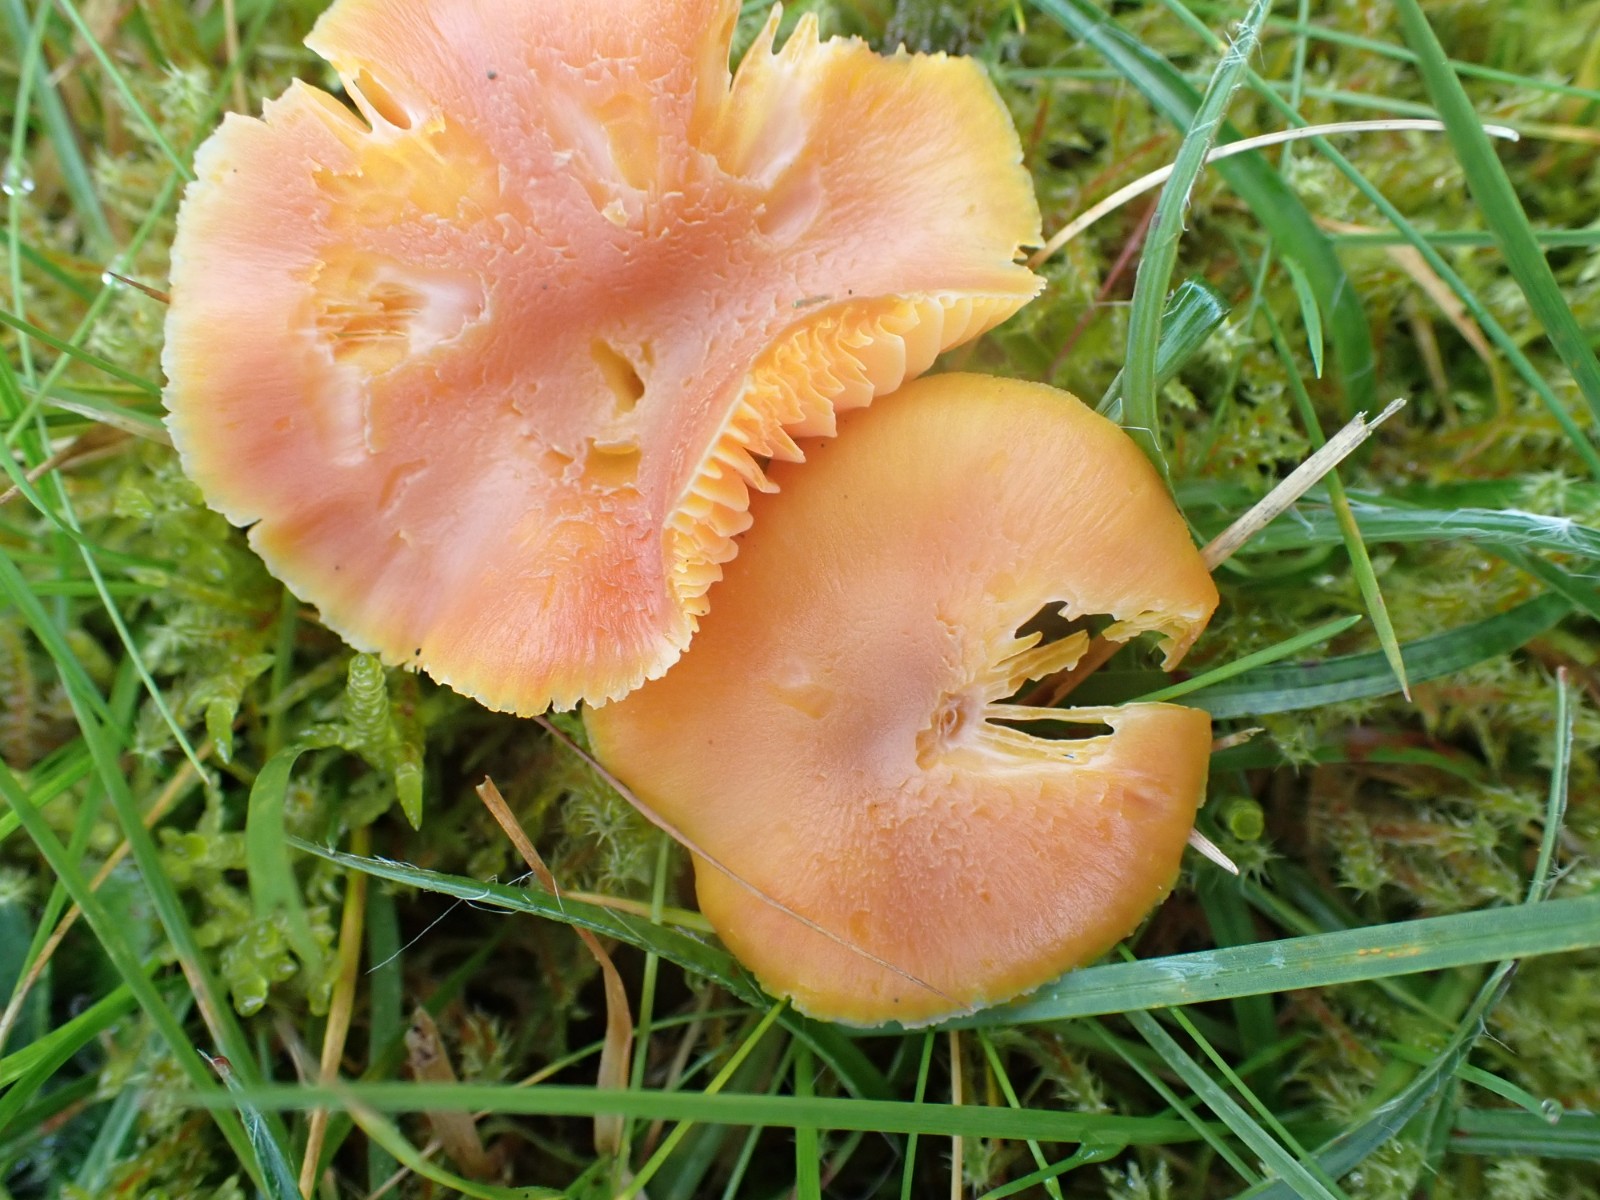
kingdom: Fungi
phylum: Basidiomycota
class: Agaricomycetes
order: Agaricales
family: Hygrophoraceae
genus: Hygrocybe
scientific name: Hygrocybe reidii
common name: honning-vokshat
